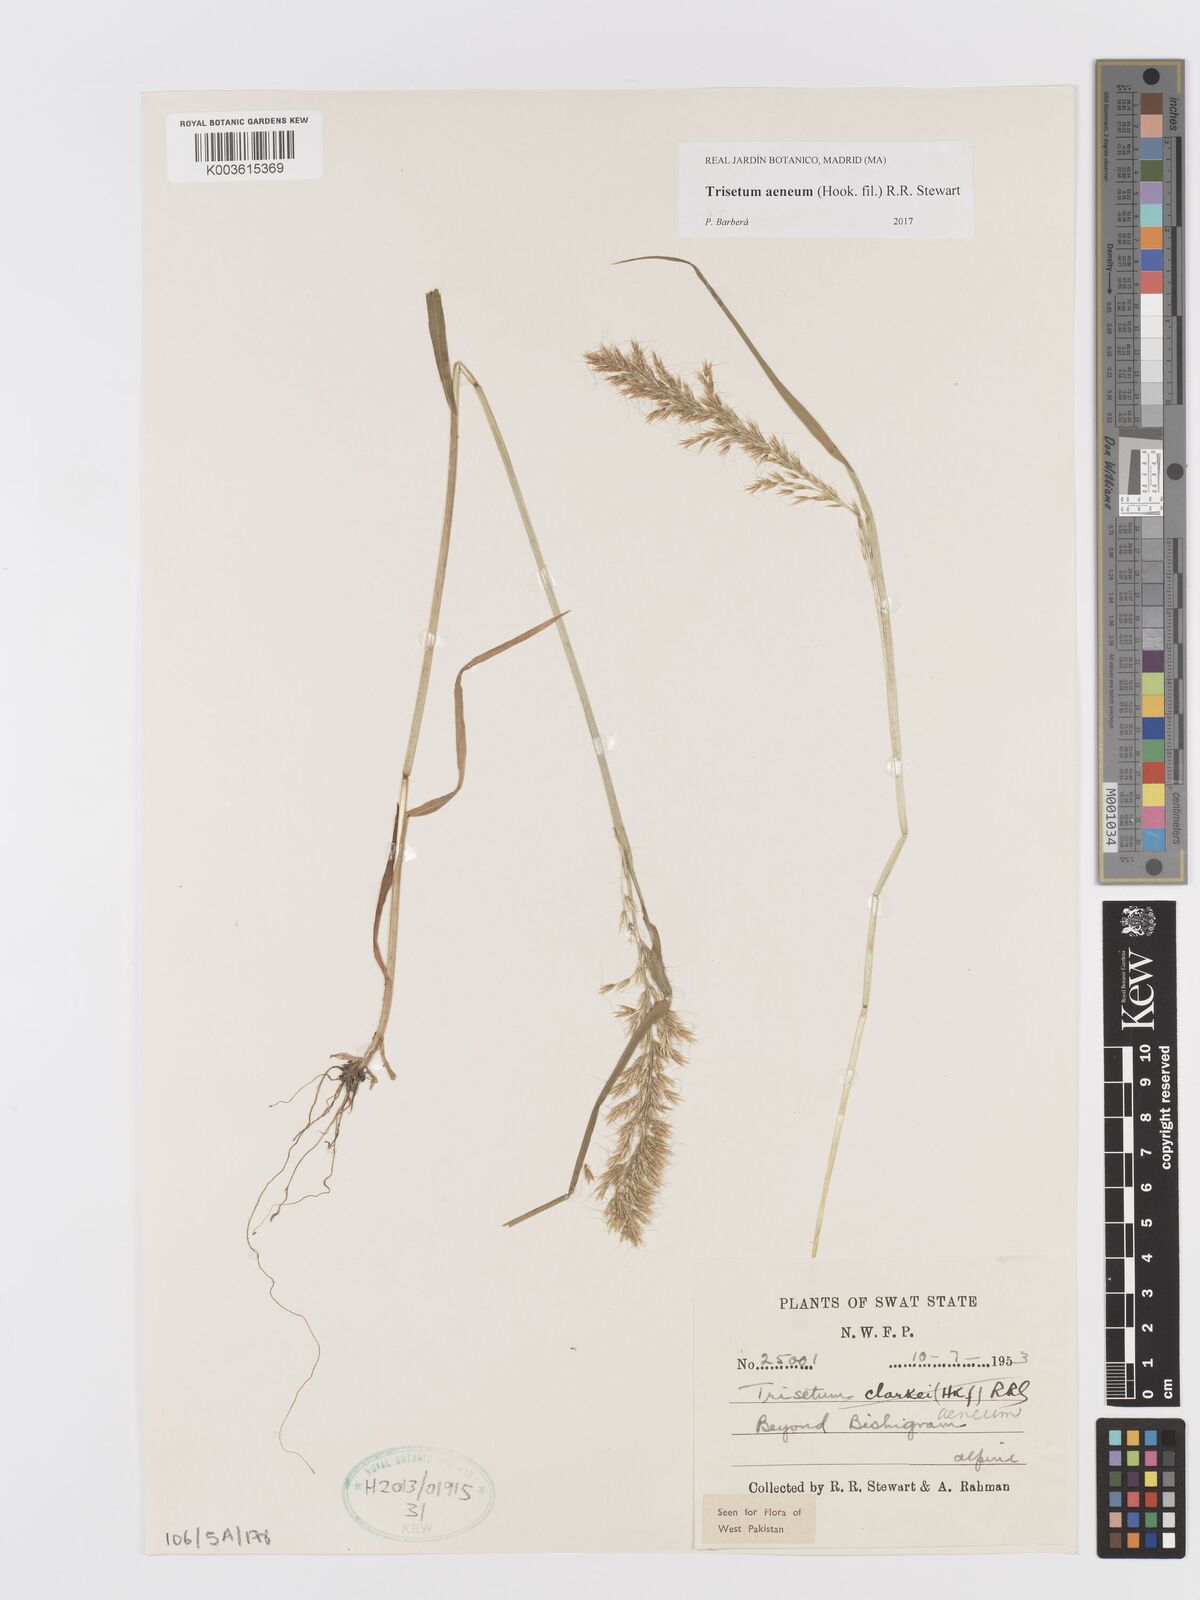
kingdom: Plantae
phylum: Tracheophyta
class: Liliopsida
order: Poales
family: Poaceae
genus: Sibirotrisetum
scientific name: Sibirotrisetum aeneum
